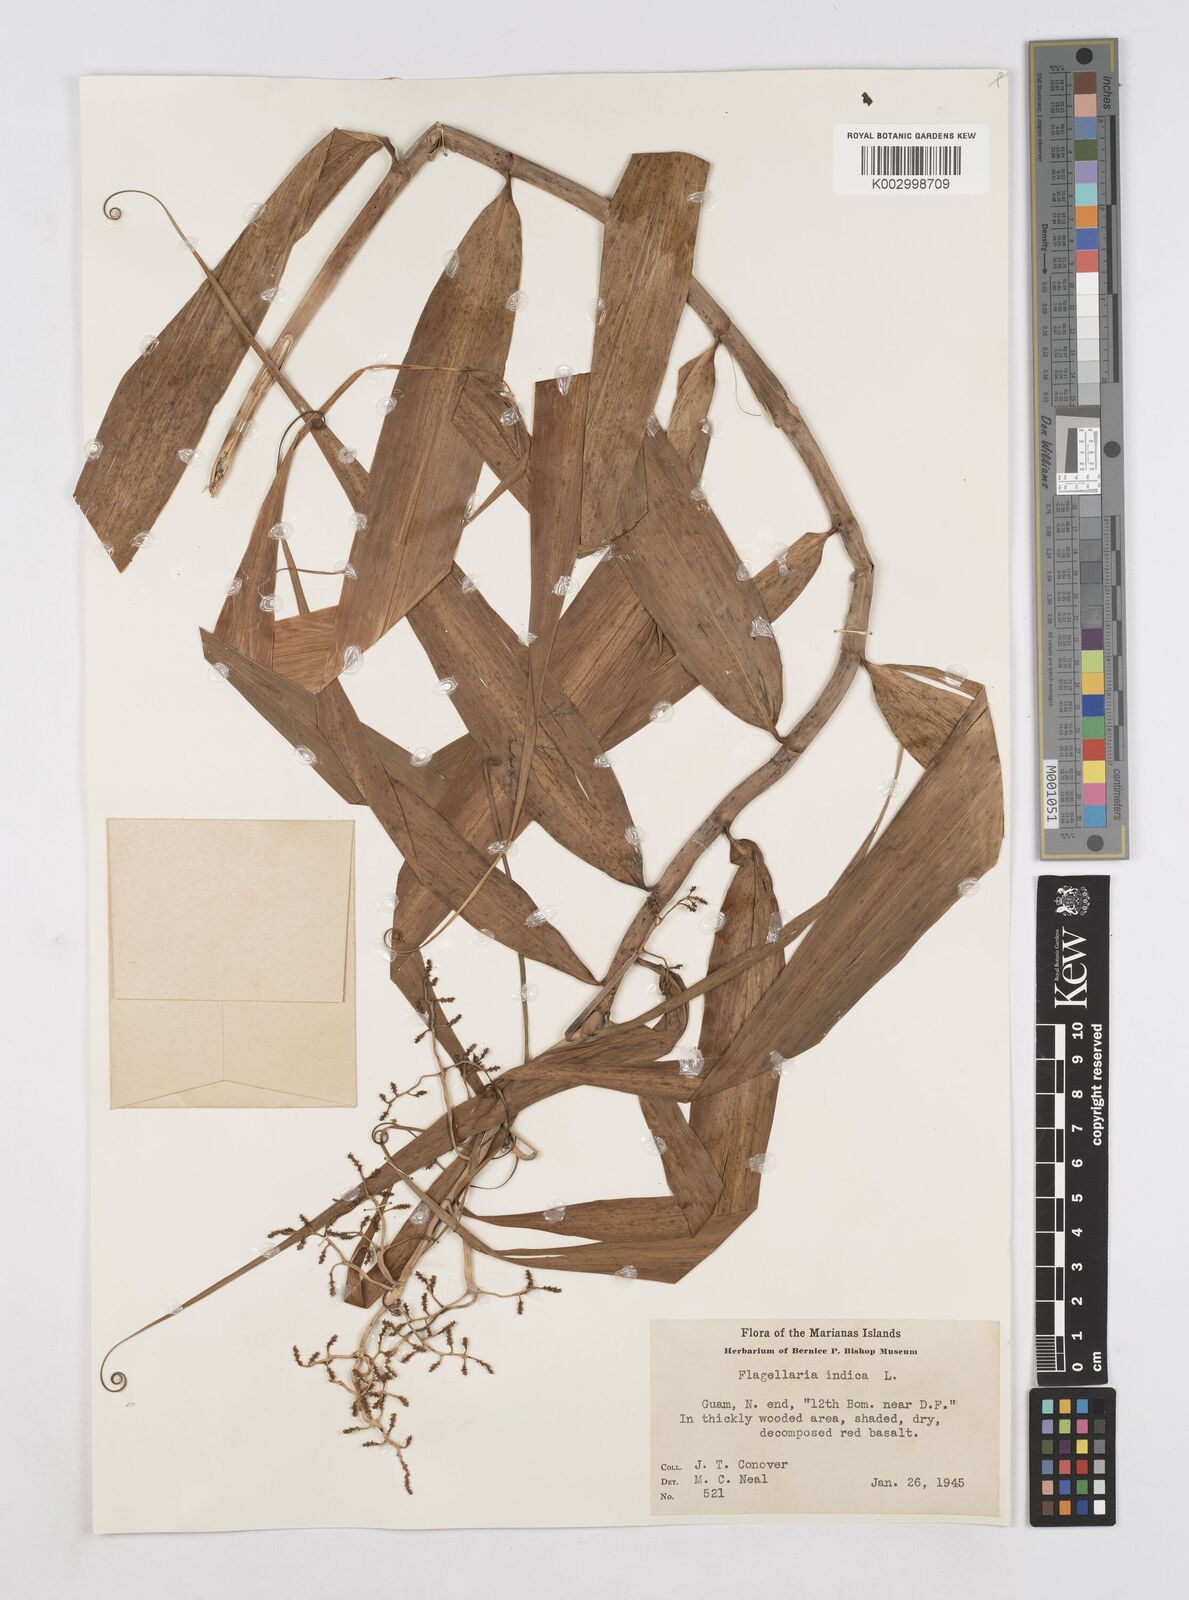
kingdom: Plantae
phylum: Tracheophyta
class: Liliopsida
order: Poales
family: Flagellariaceae
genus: Flagellaria
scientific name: Flagellaria indica
